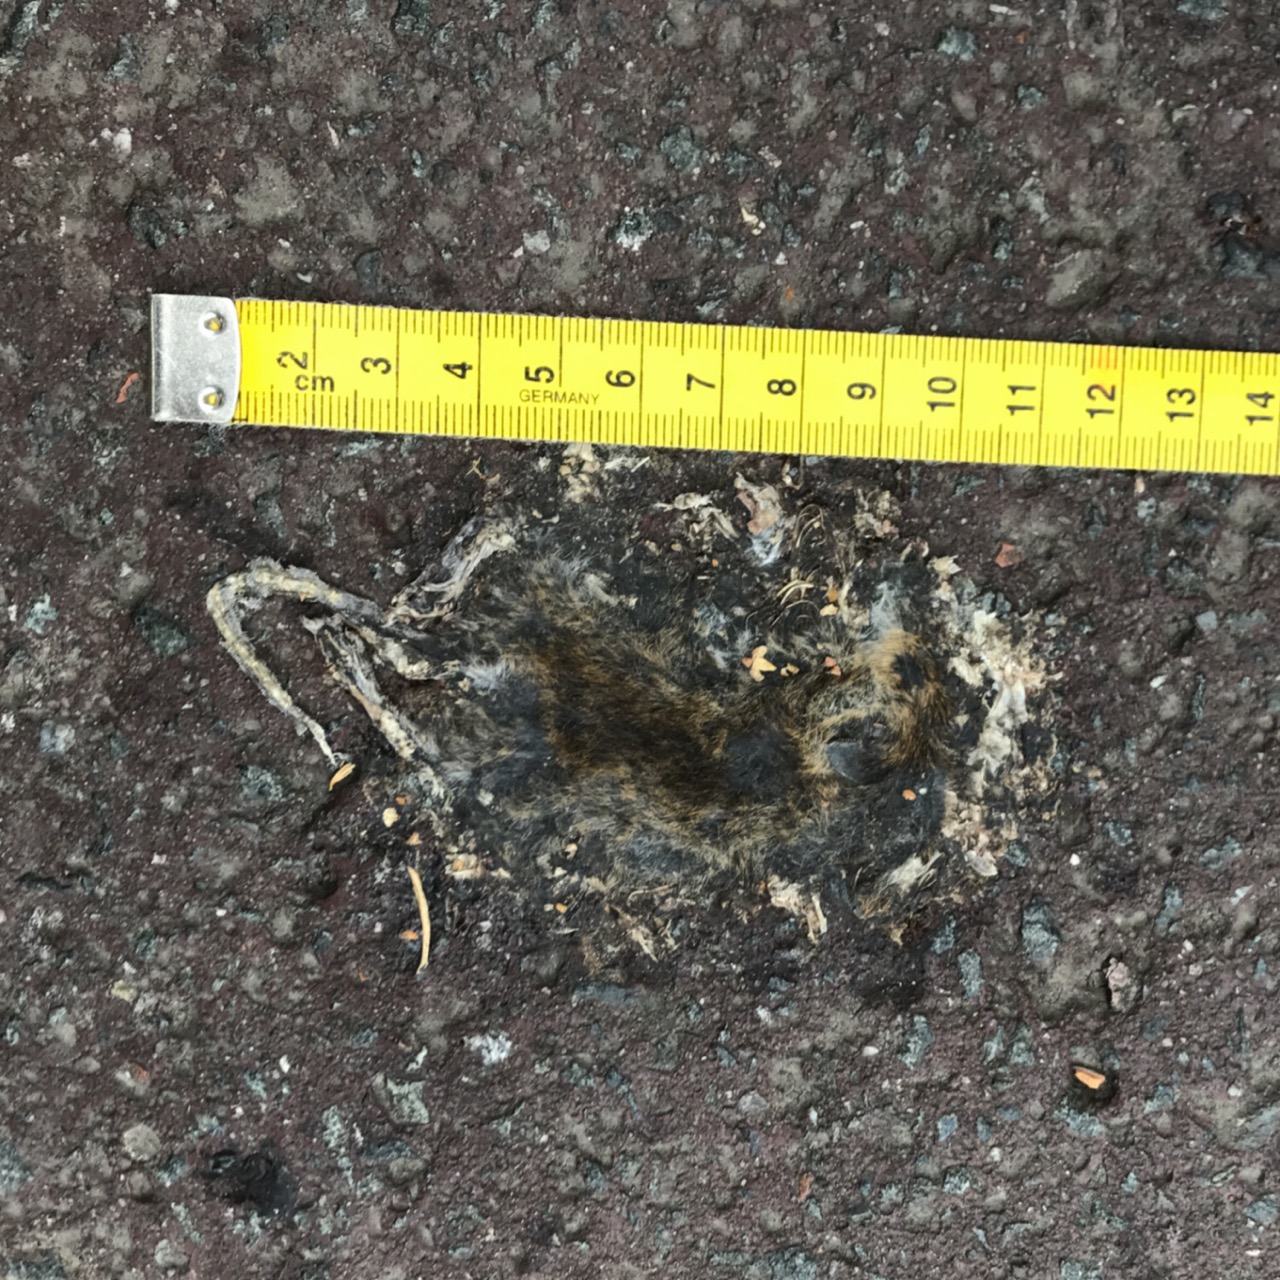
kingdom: Animalia
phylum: Chordata
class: Mammalia
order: Rodentia
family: Cricetidae
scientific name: Cricetidae
